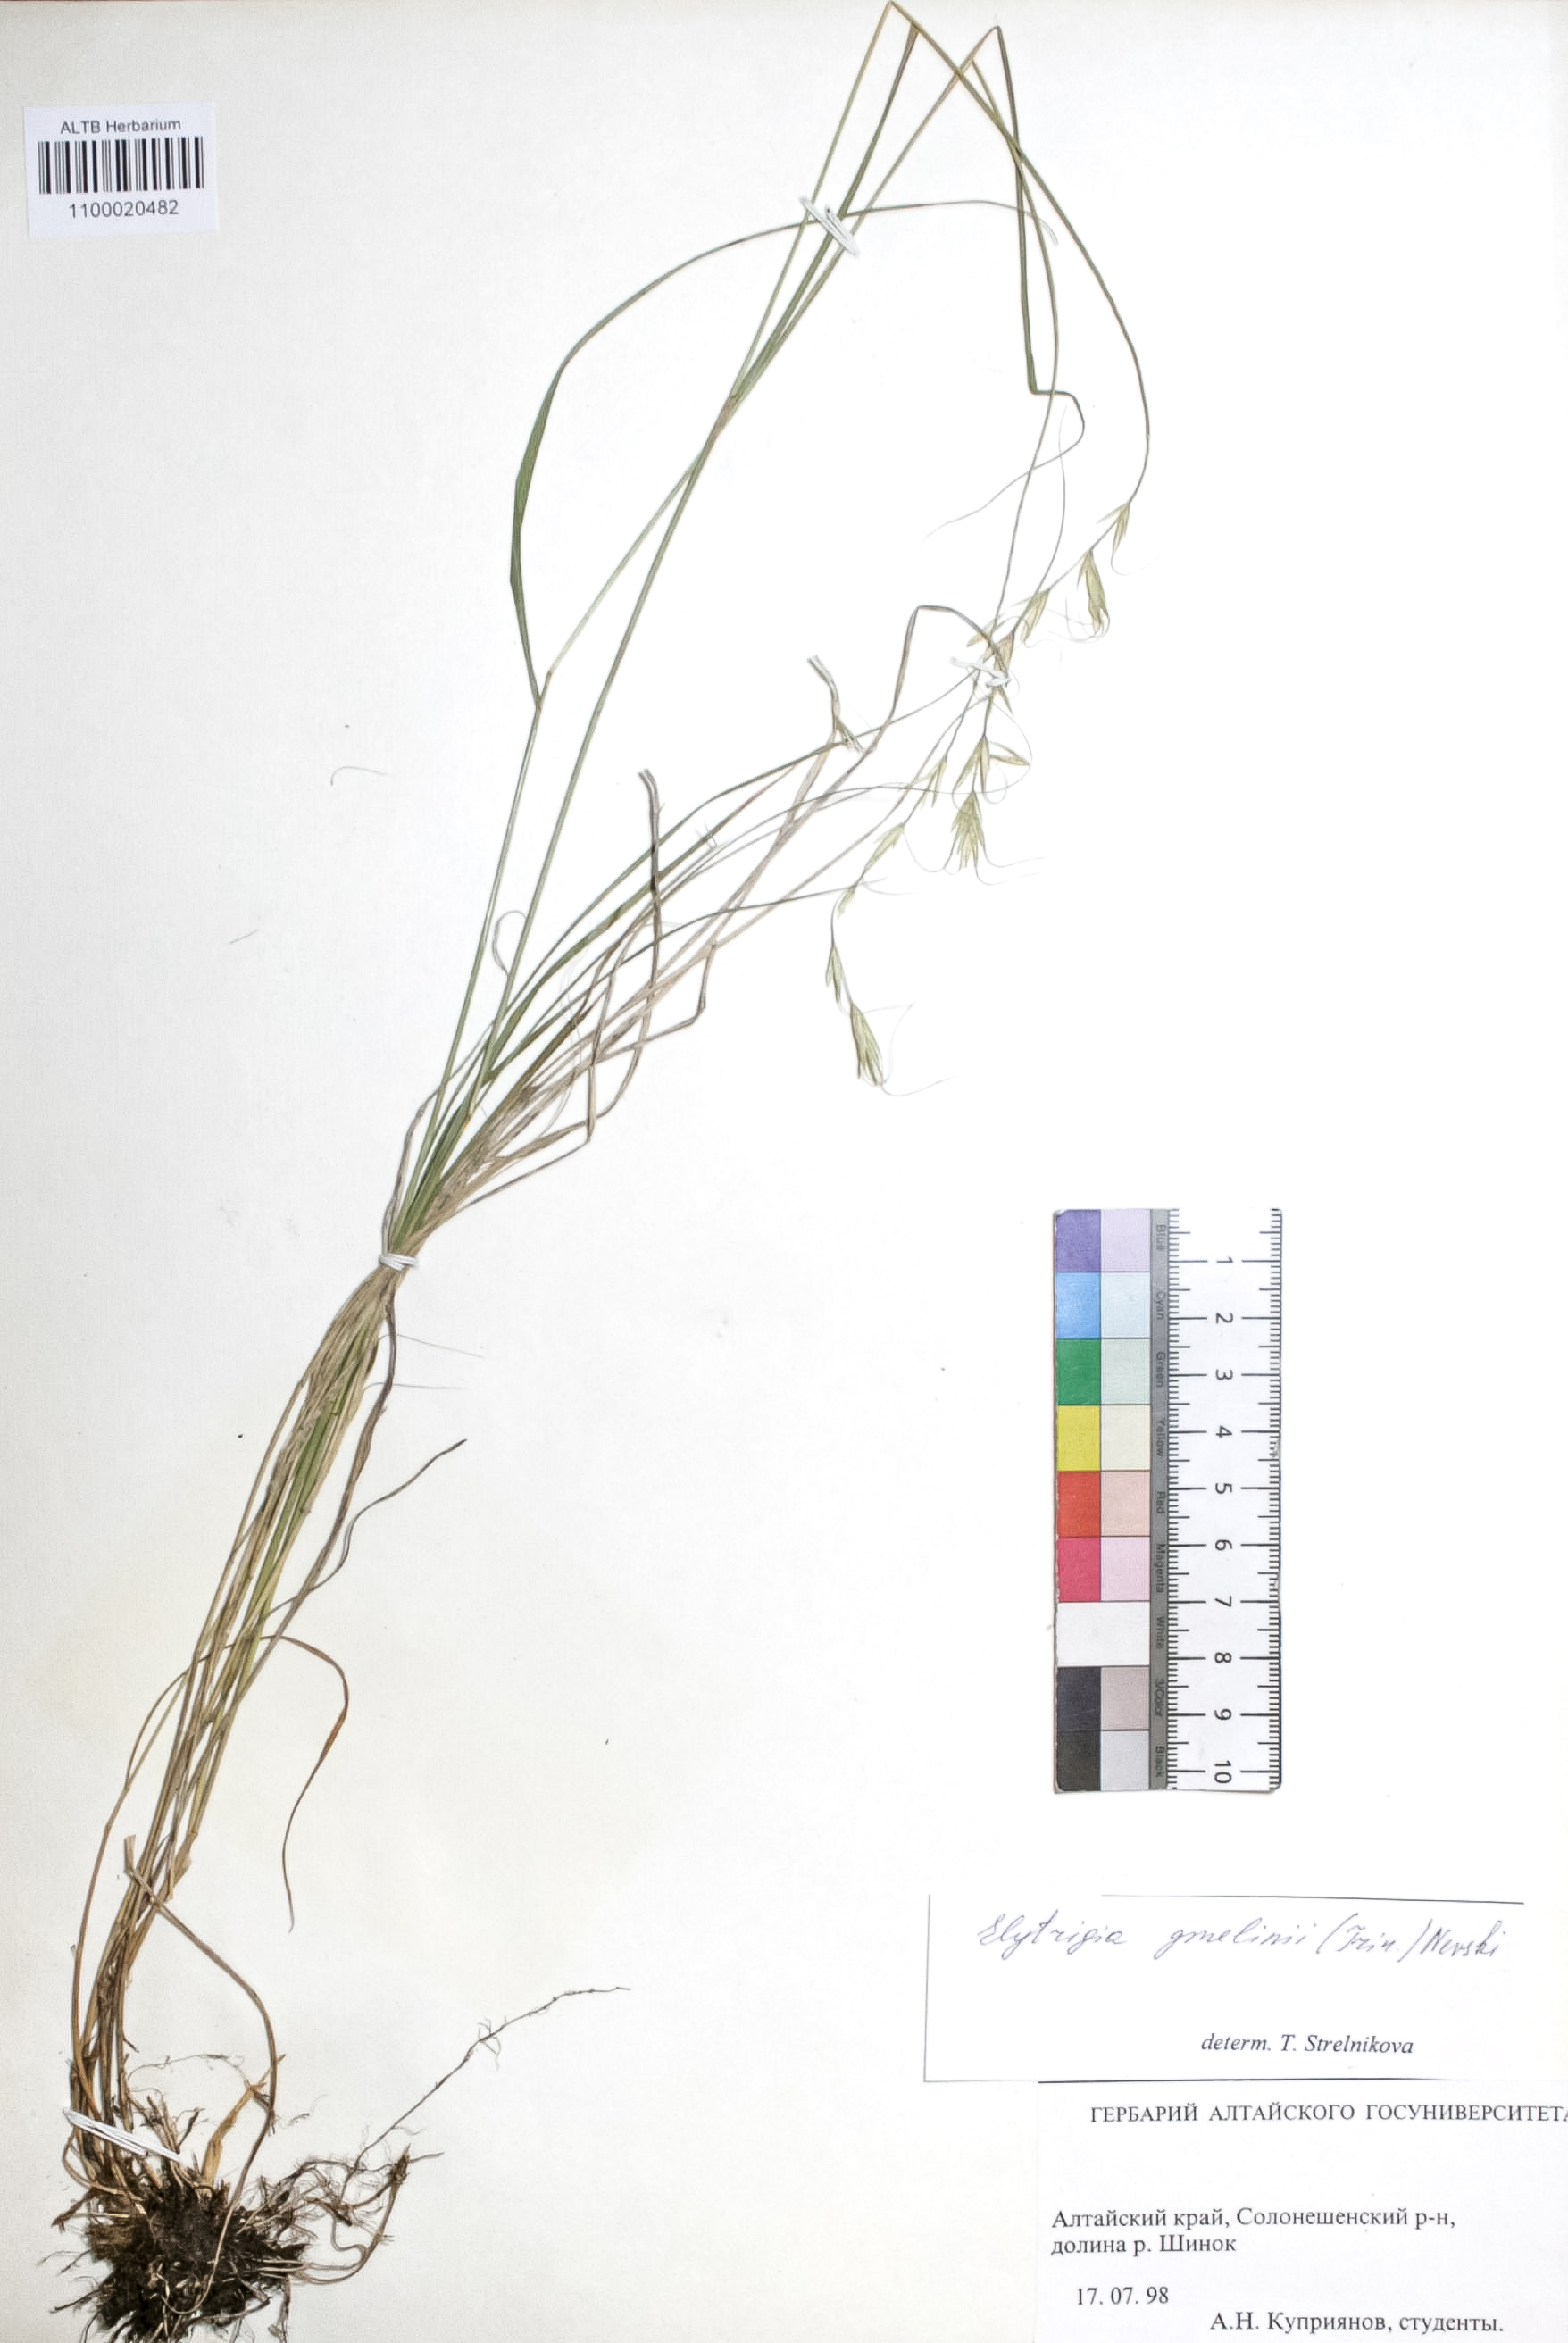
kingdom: Plantae
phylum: Tracheophyta
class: Liliopsida
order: Poales
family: Poaceae
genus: Pseudoroegneria
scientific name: Pseudoroegneria reflexiaristata
